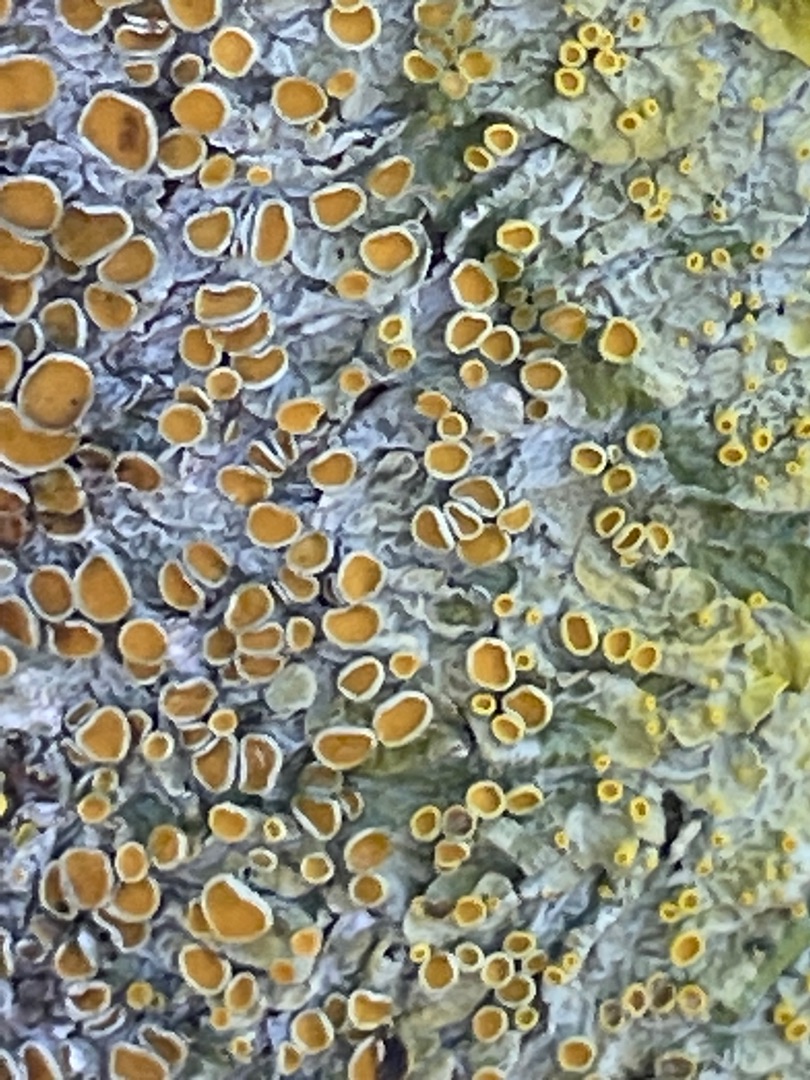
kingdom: Fungi
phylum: Ascomycota
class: Lecanoromycetes
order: Teloschistales
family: Teloschistaceae
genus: Xanthoria
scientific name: Xanthoria parietina
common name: Almindelig væggelav
